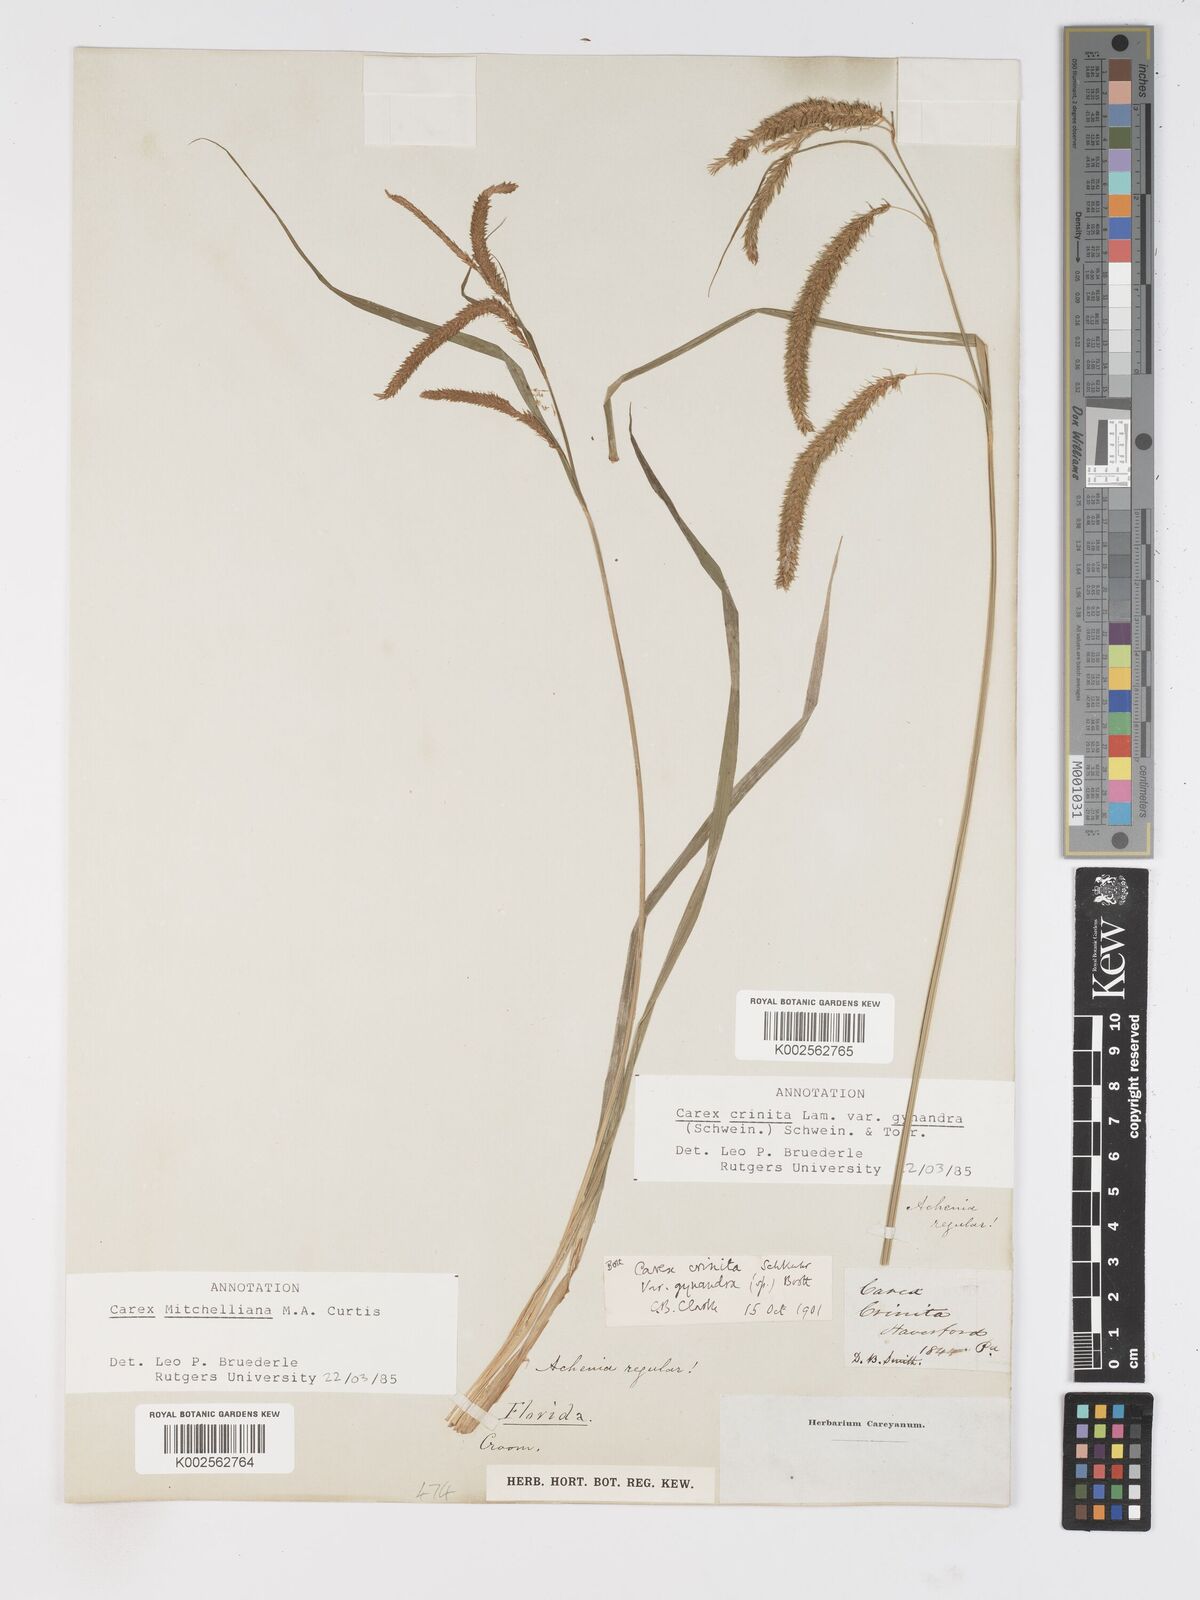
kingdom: Plantae
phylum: Tracheophyta
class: Liliopsida
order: Poales
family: Cyperaceae
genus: Carex
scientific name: Carex mitchelliana
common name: Mitchell's sedge
